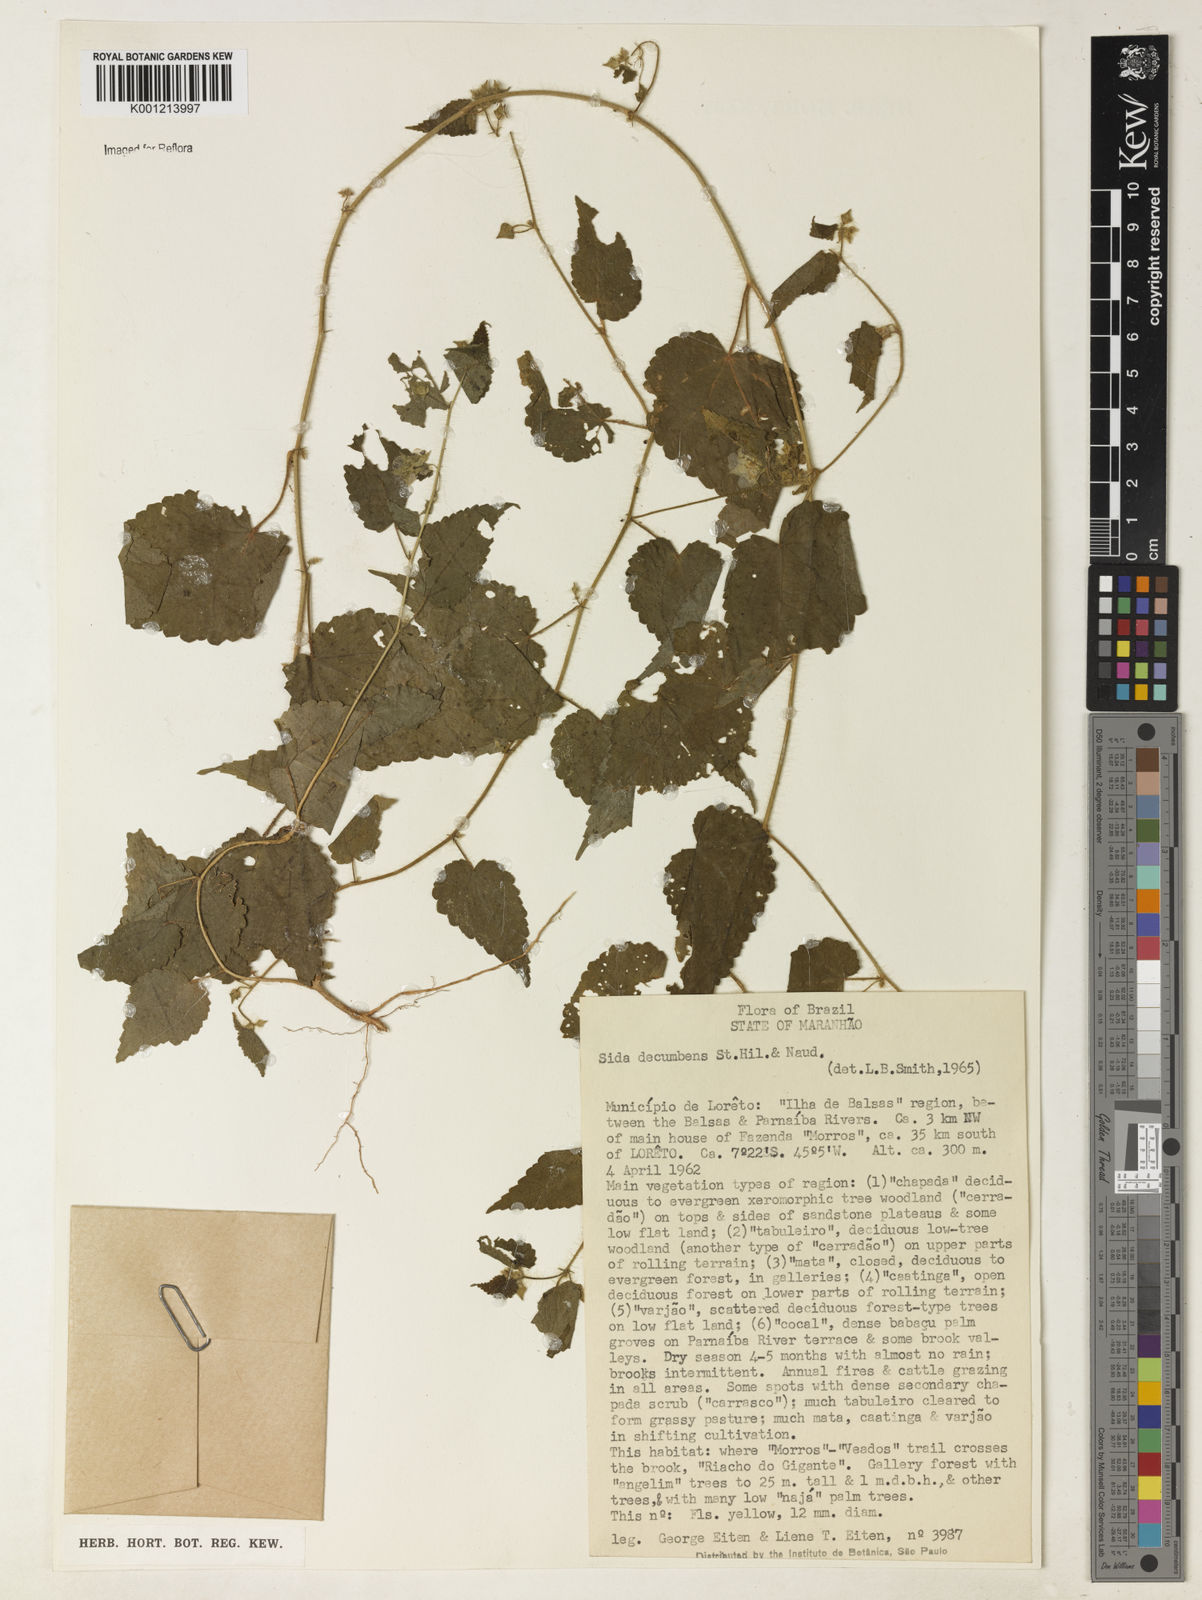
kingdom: Plantae
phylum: Tracheophyta
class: Magnoliopsida
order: Malvales
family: Malvaceae
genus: Sida
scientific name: Sida jussieana
